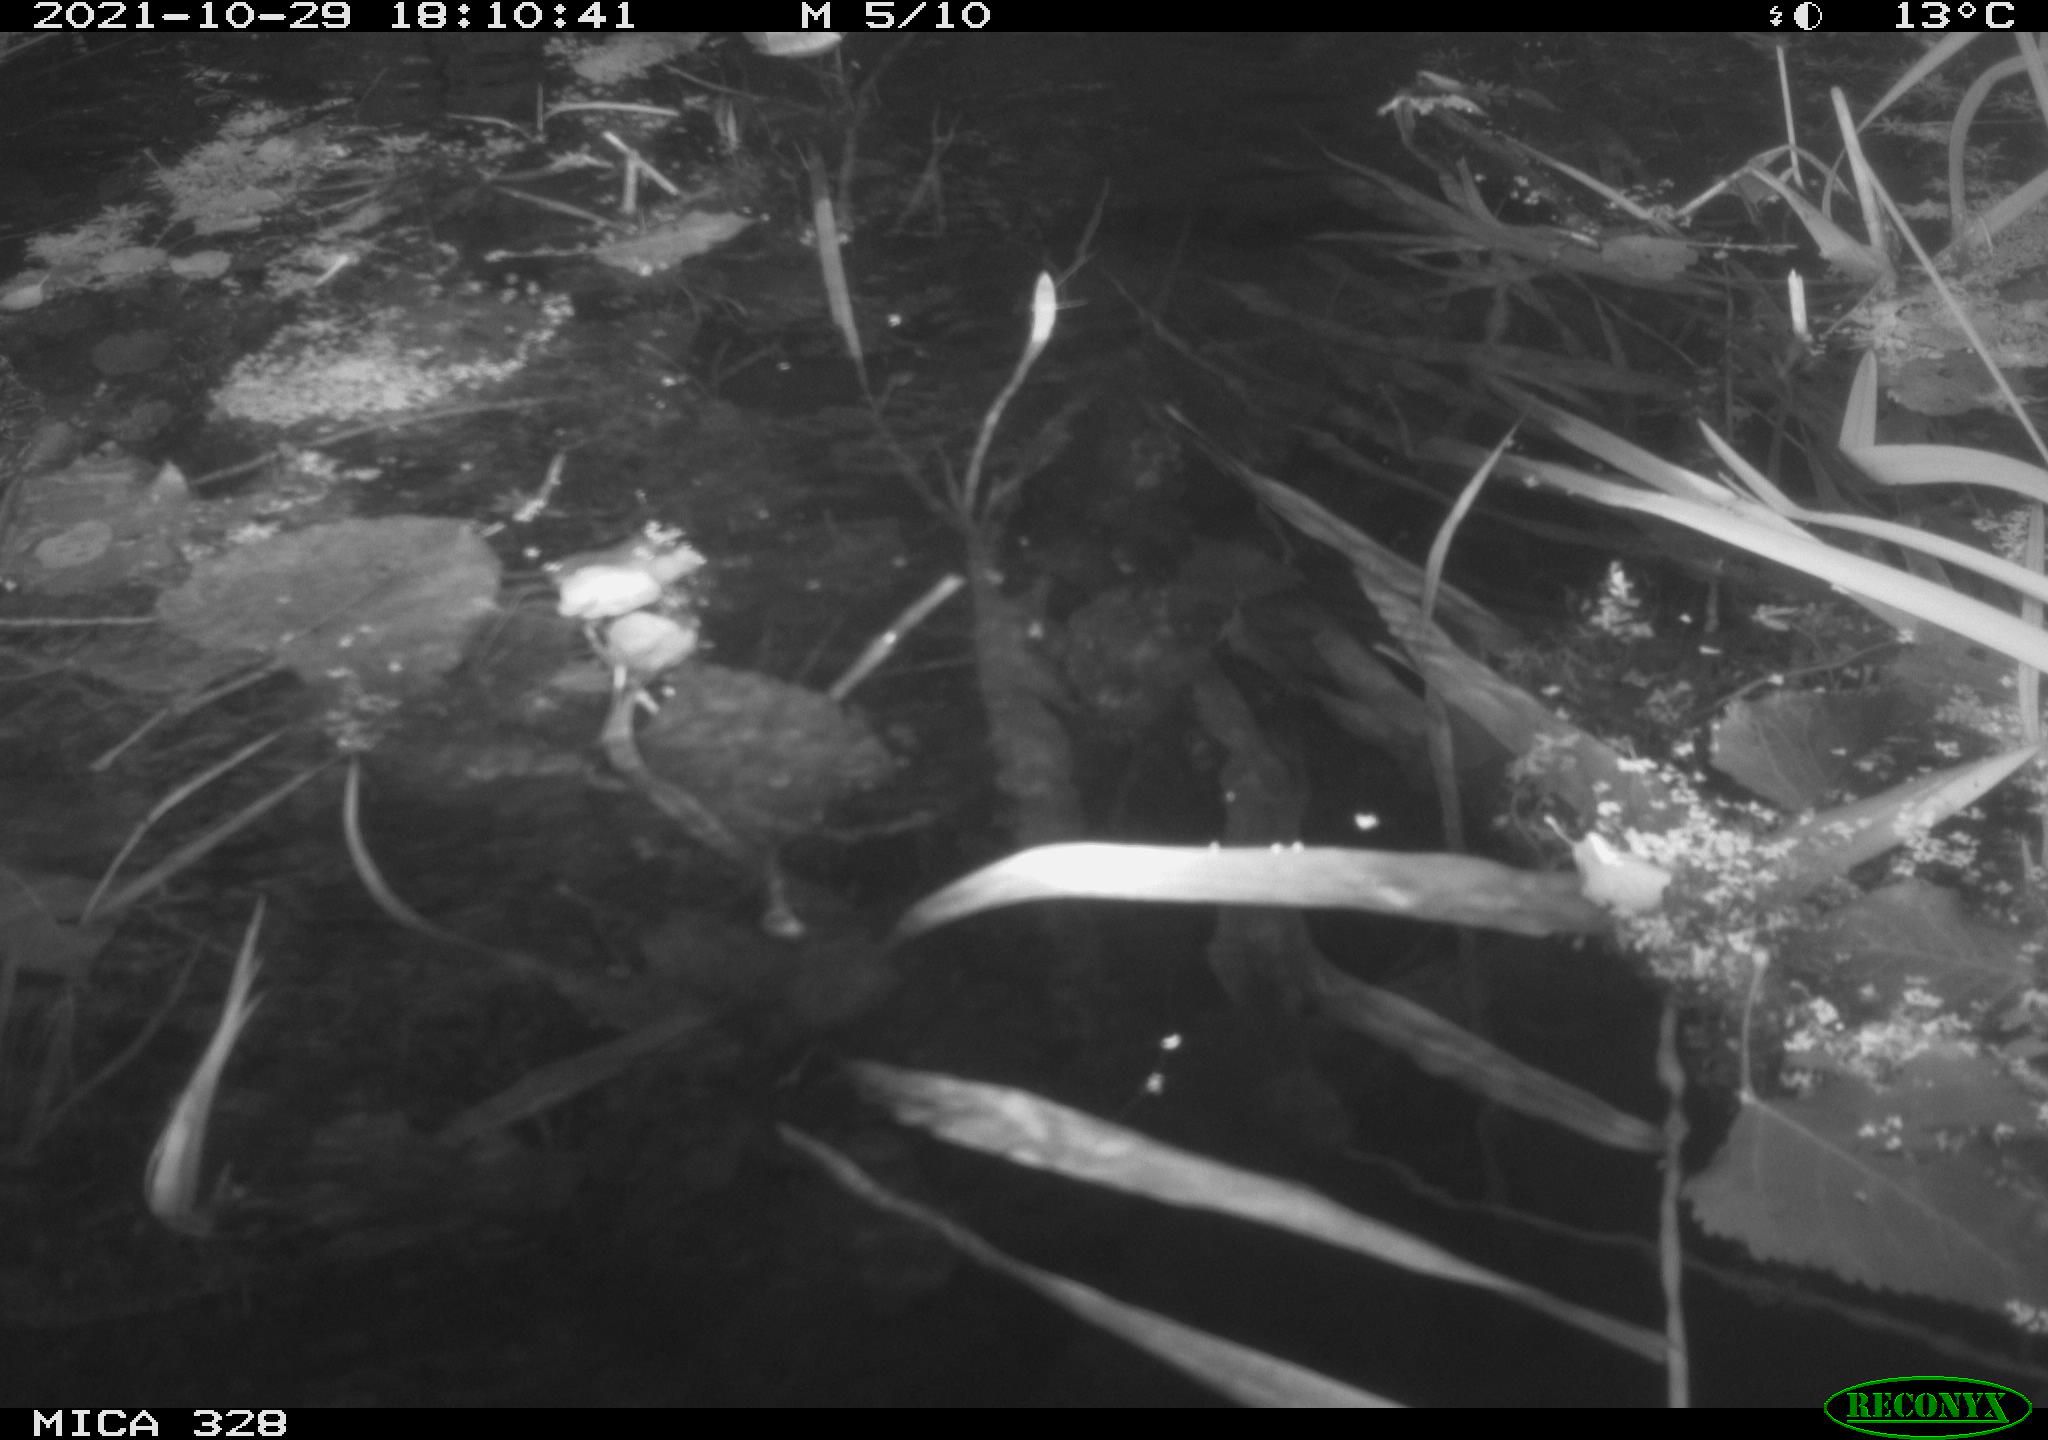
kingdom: Animalia
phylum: Chordata
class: Mammalia
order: Rodentia
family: Cricetidae
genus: Ondatra
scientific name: Ondatra zibethicus
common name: Muskrat
